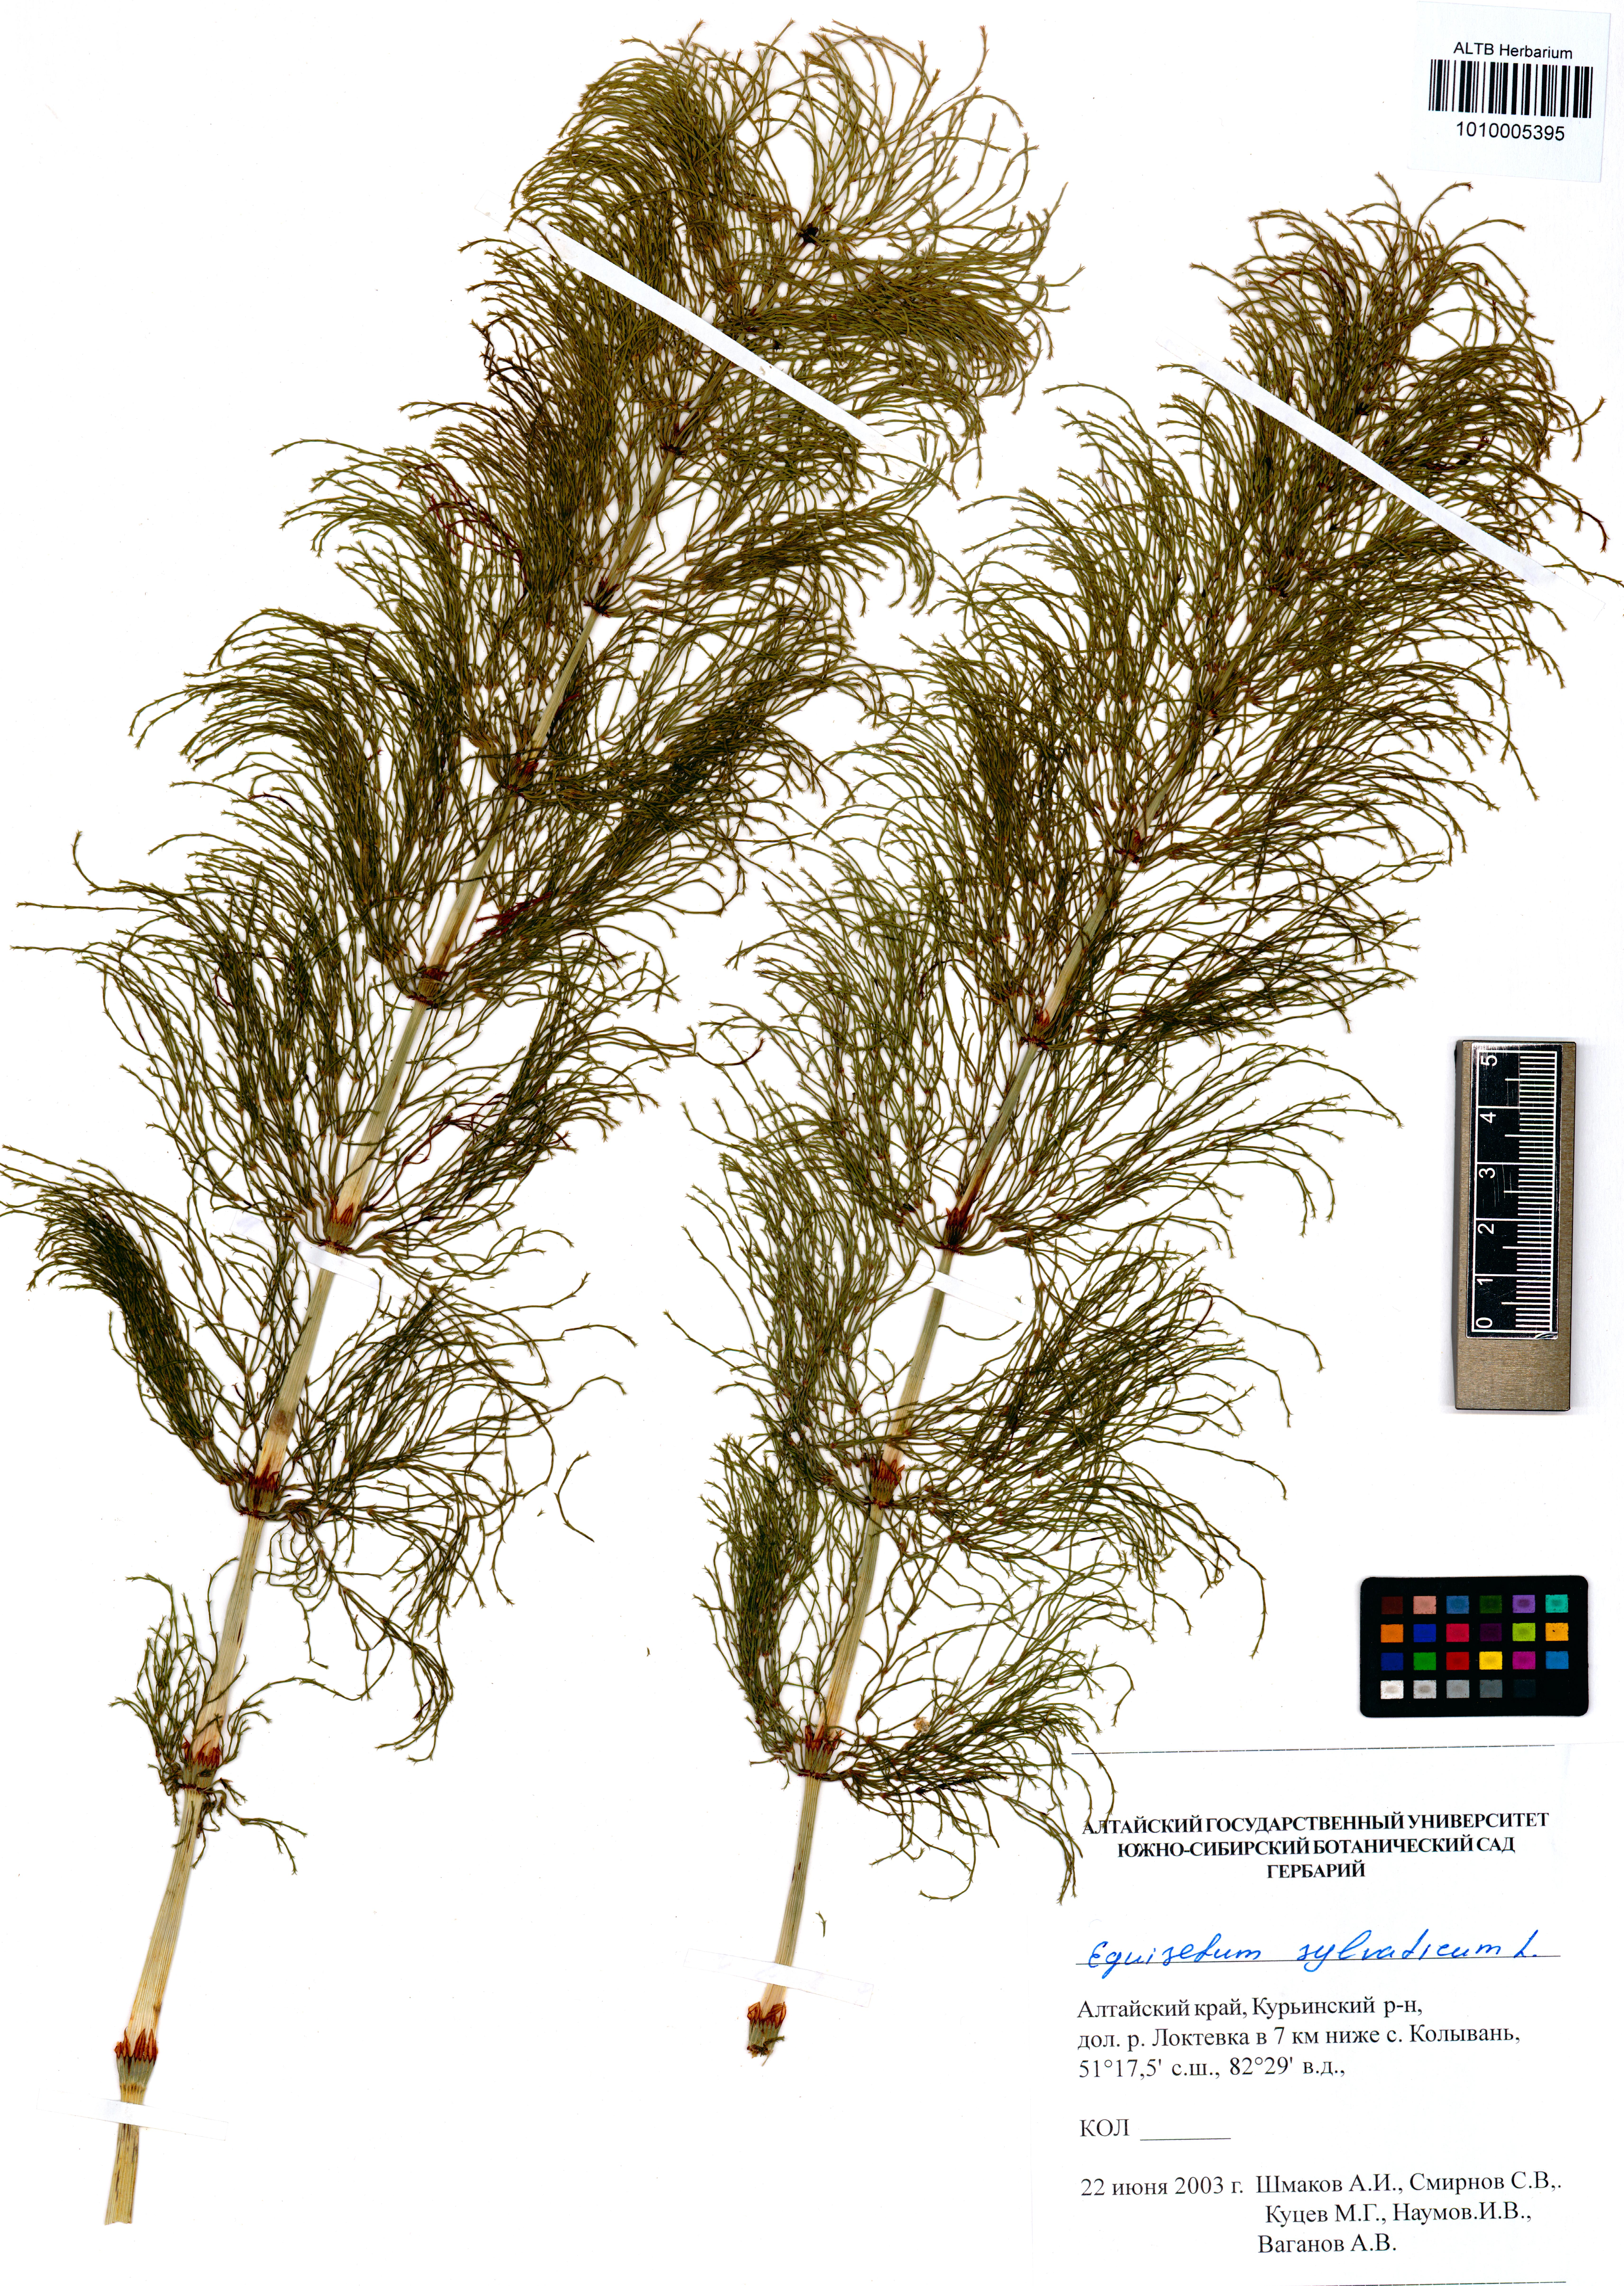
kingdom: Plantae
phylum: Tracheophyta
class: Polypodiopsida
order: Equisetales
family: Equisetaceae
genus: Equisetum
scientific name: Equisetum sylvaticum
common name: Wood horsetail
